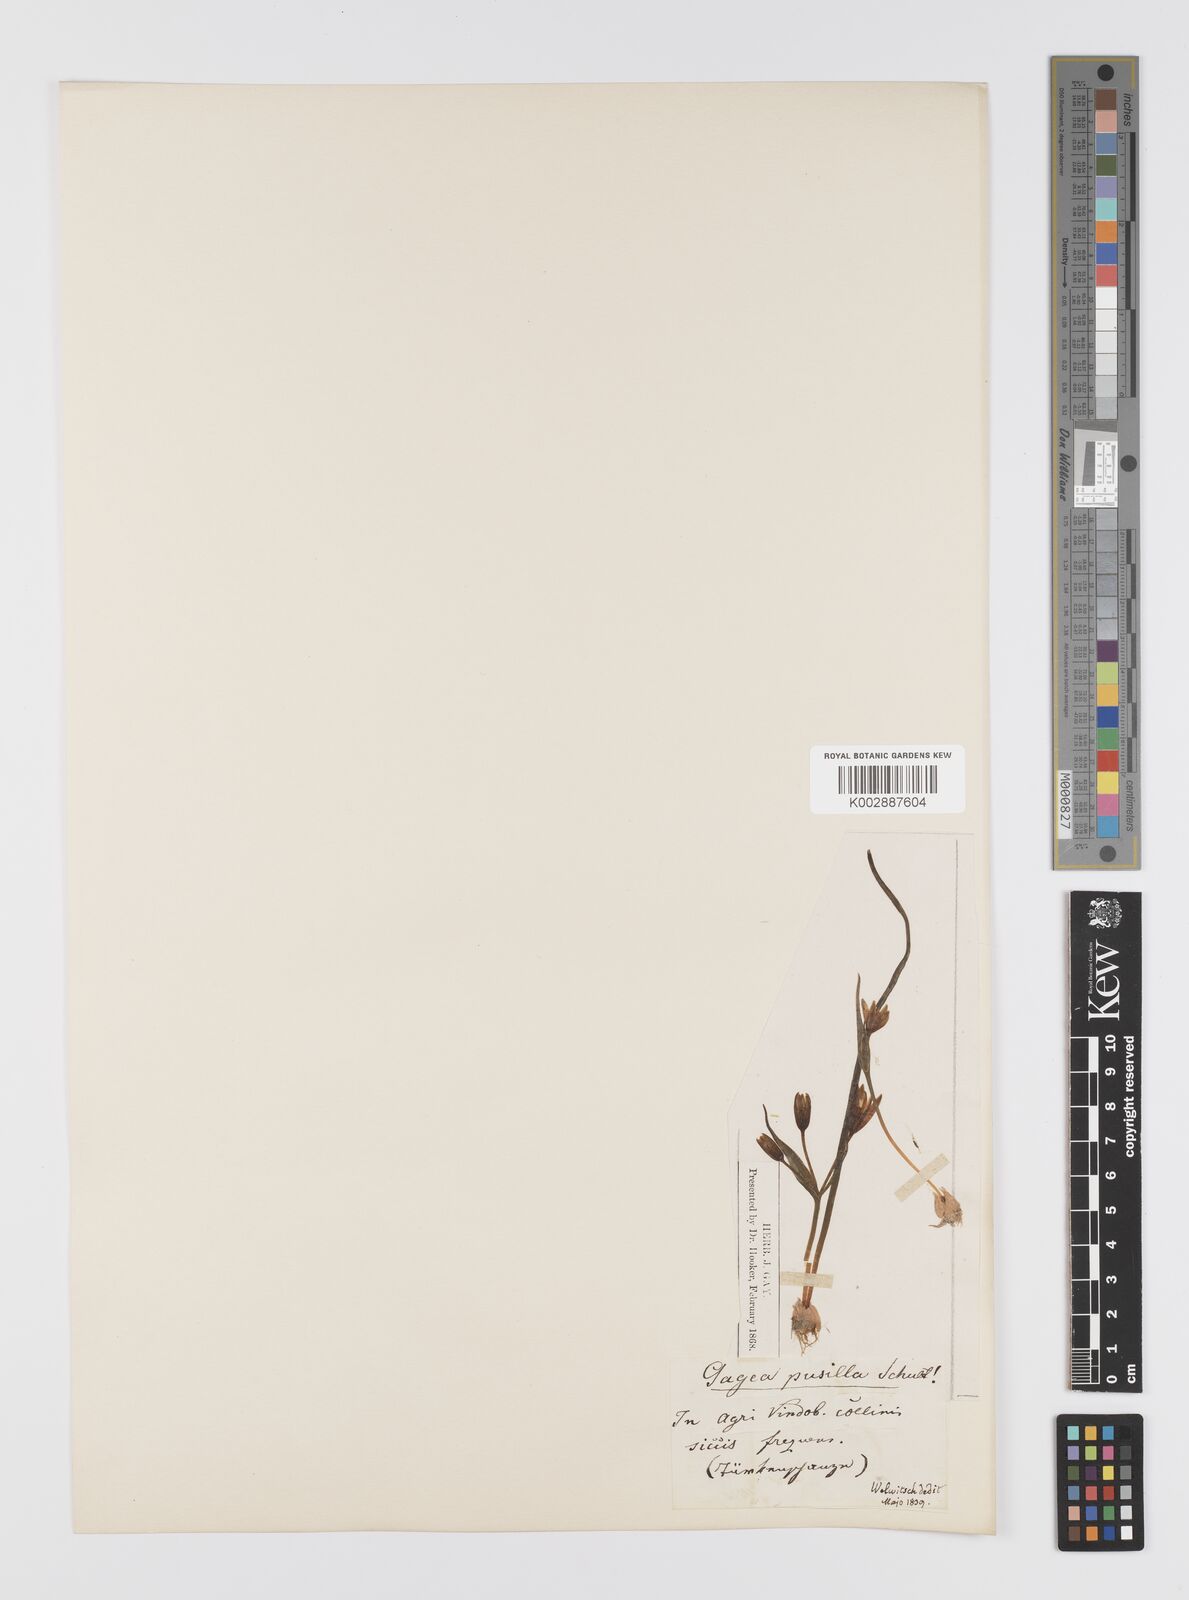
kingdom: Plantae
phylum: Tracheophyta
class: Liliopsida
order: Liliales
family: Liliaceae
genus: Gagea
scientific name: Gagea pusilla
